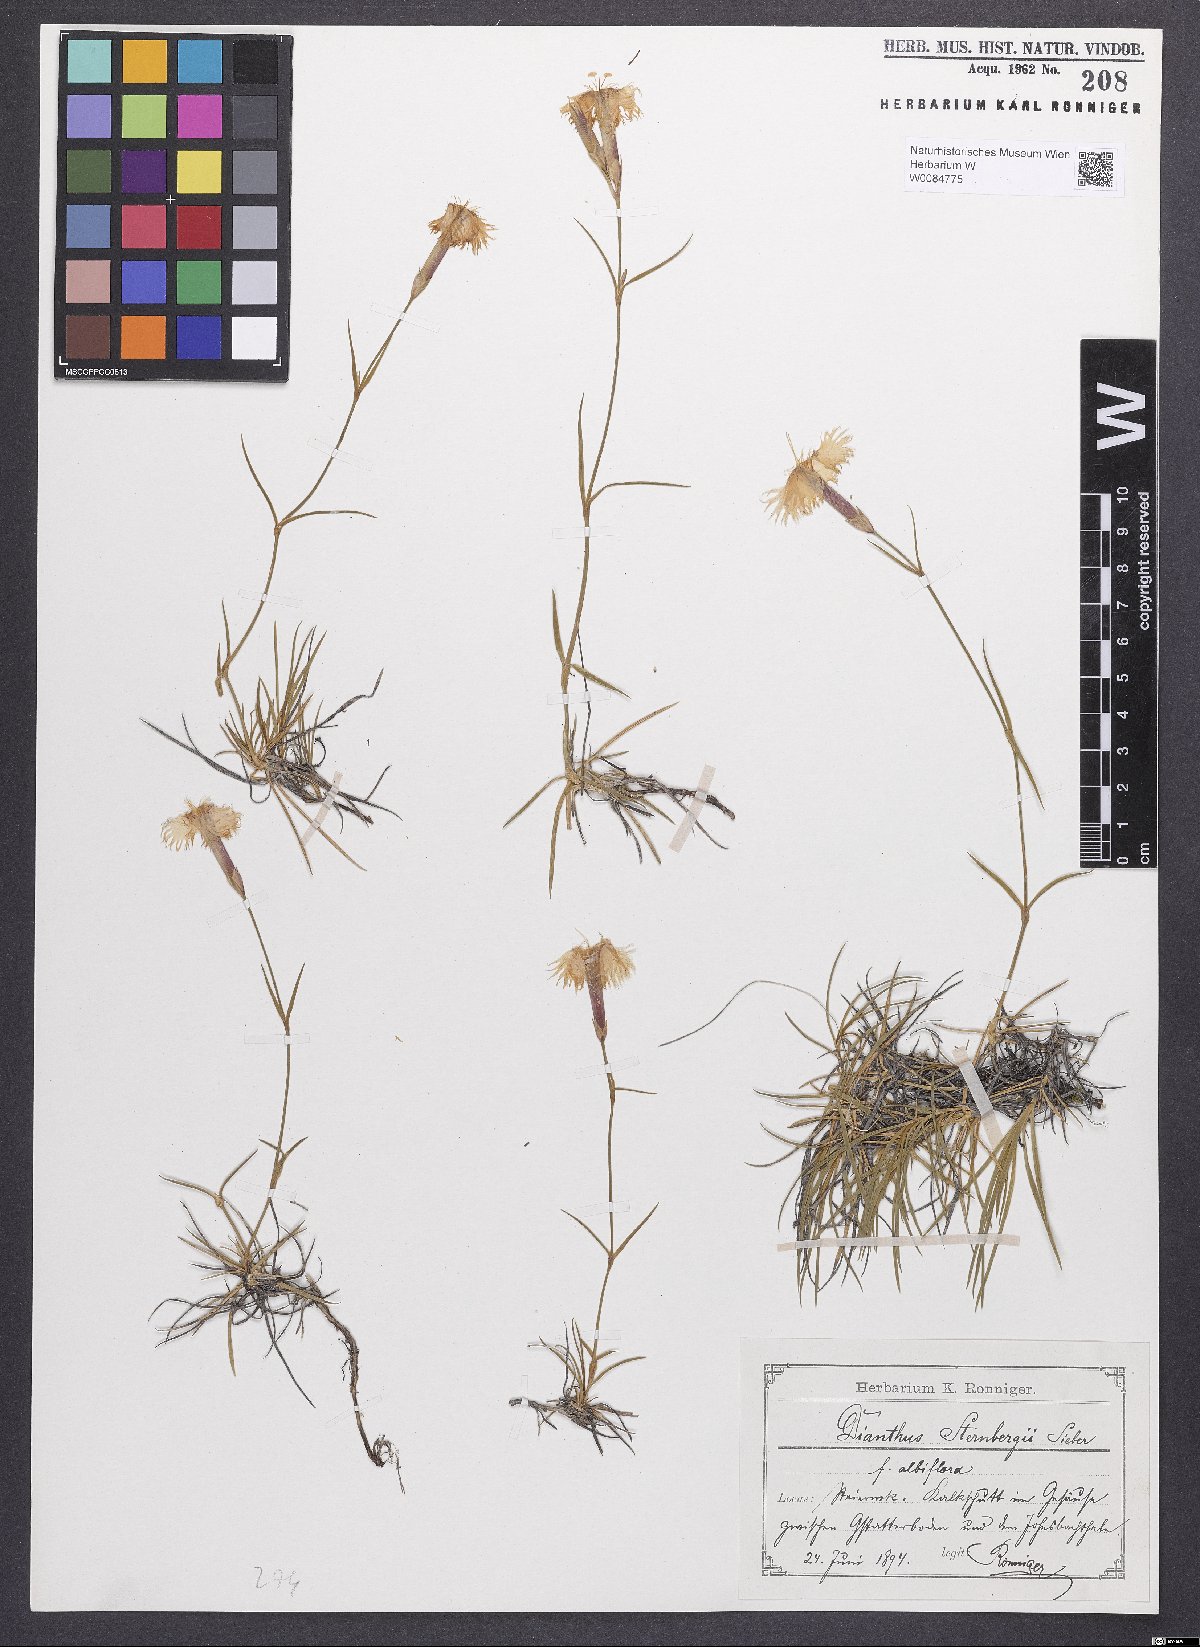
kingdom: Plantae
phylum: Tracheophyta
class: Magnoliopsida
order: Caryophyllales
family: Caryophyllaceae
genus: Dianthus
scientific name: Dianthus monspessulanus
